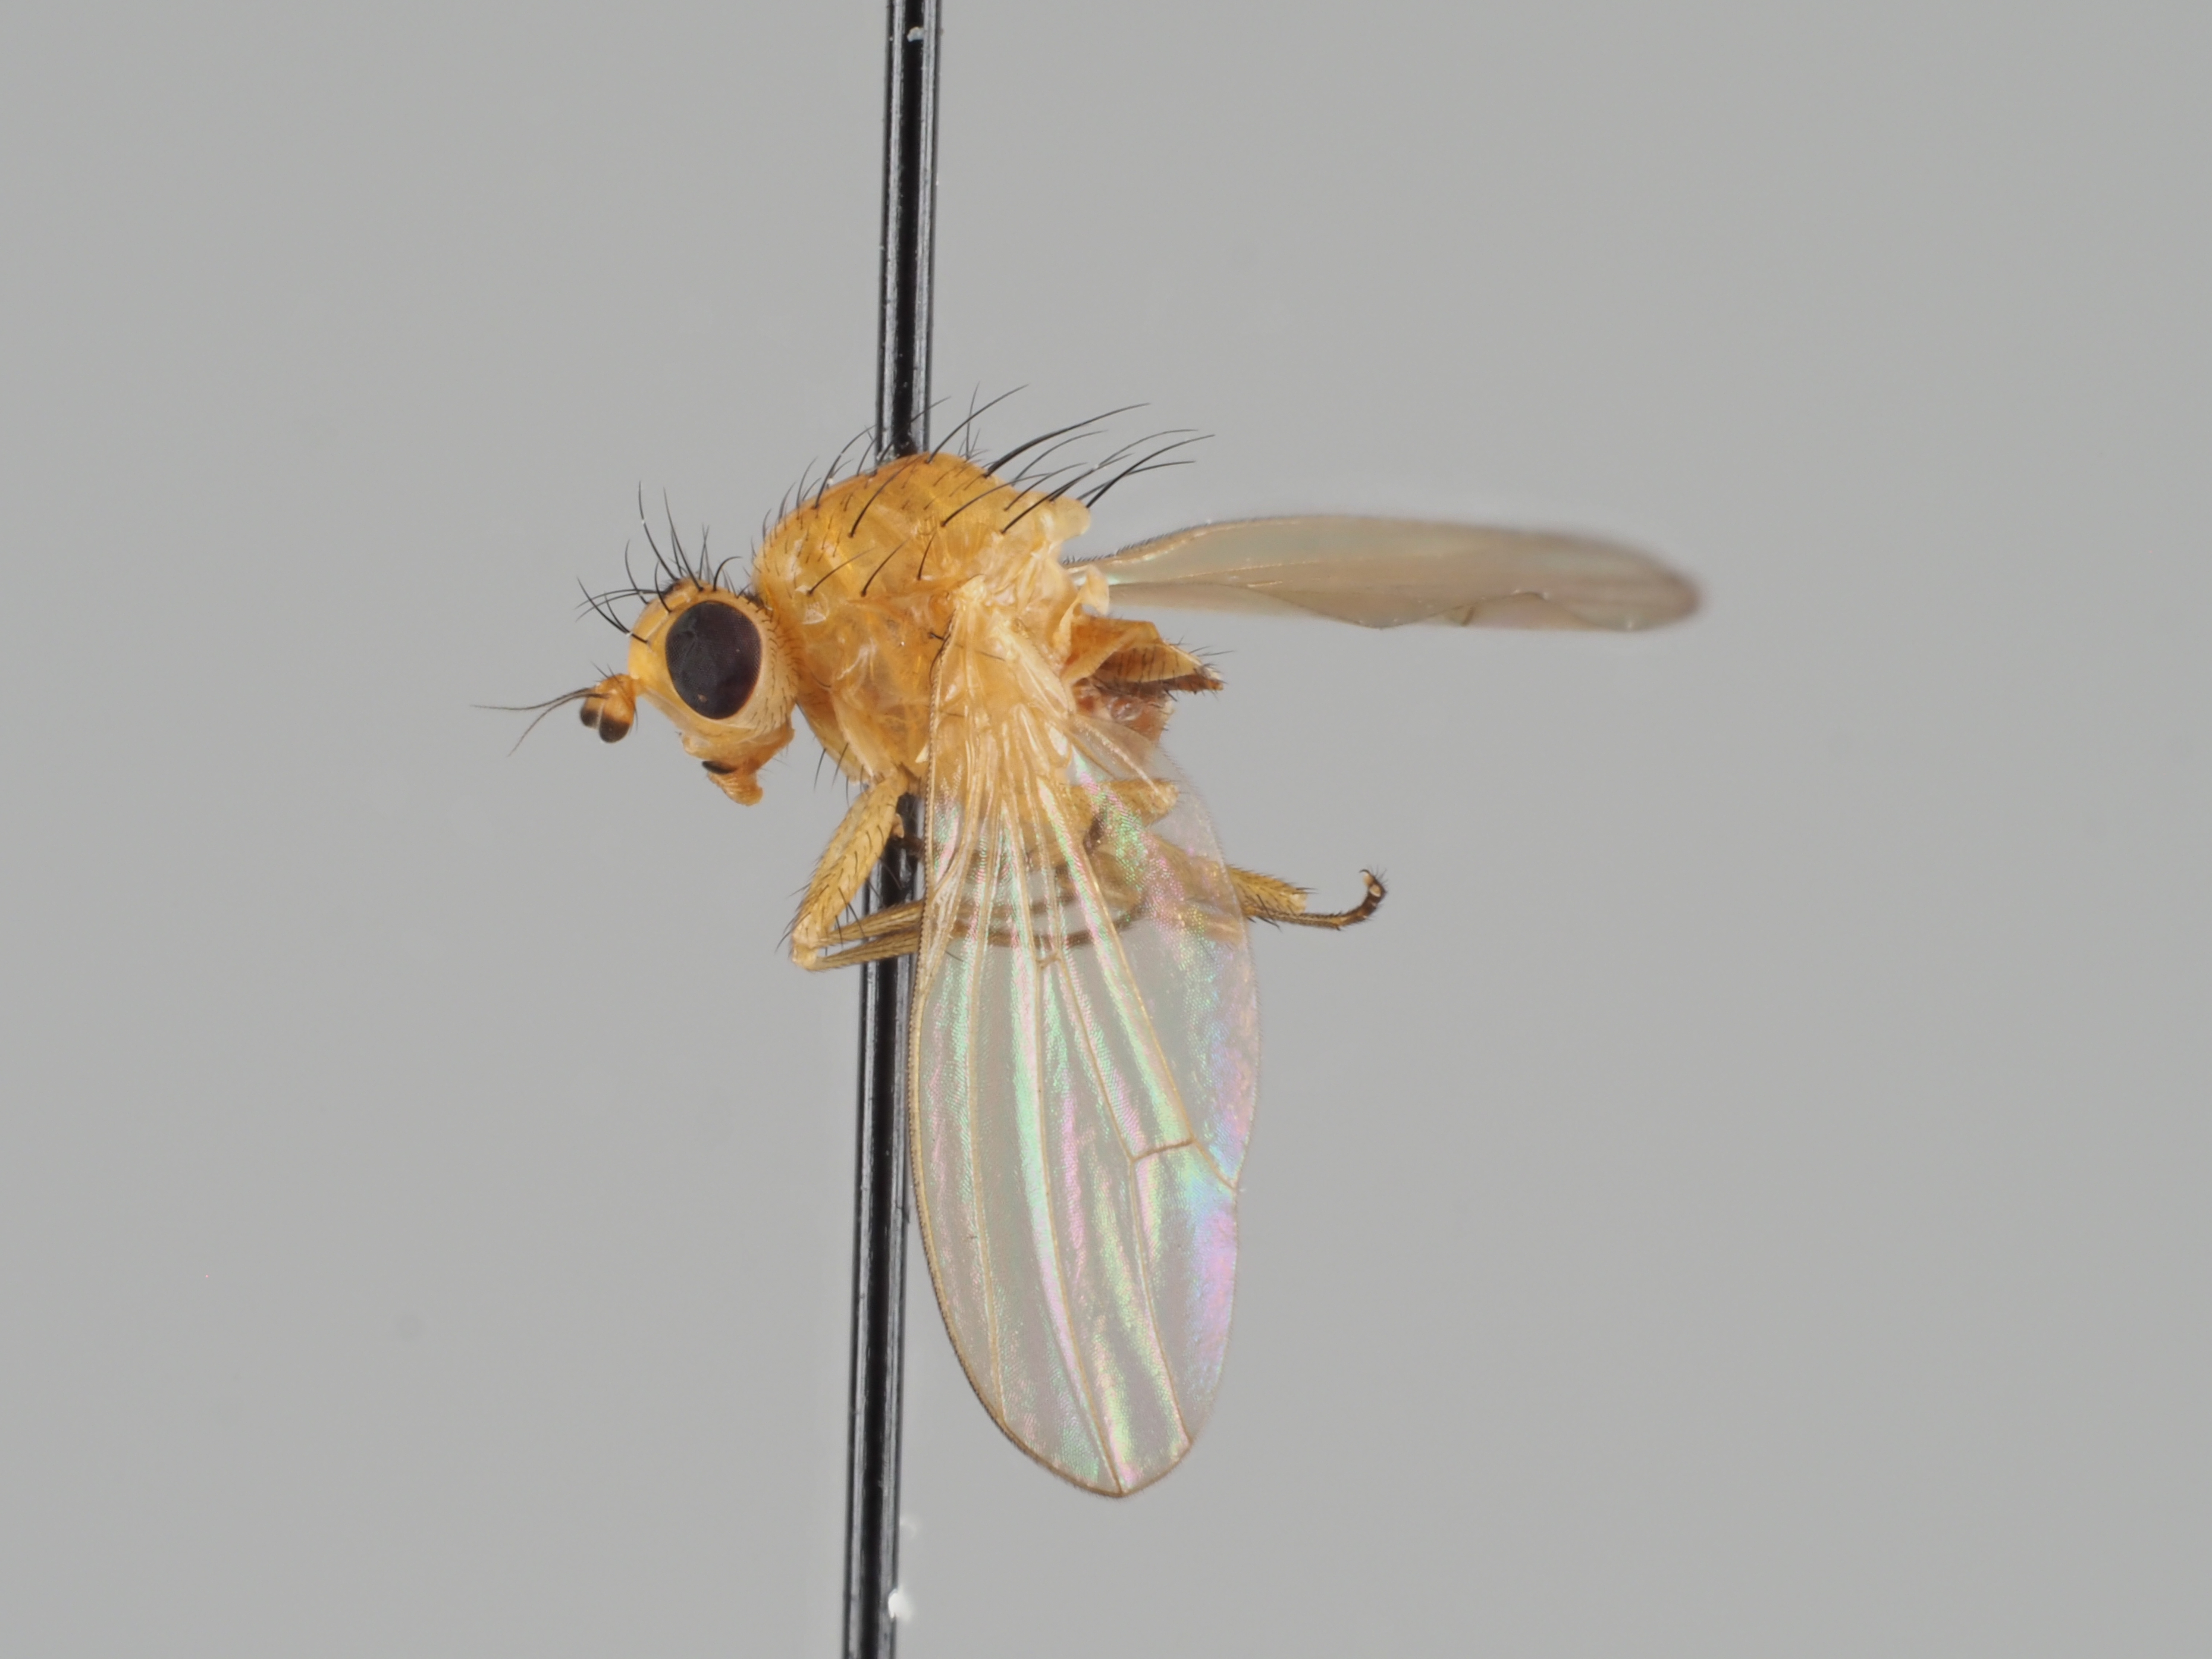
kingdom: Animalia
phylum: Arthropoda
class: Insecta
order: Diptera
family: Lauxaniidae
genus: Meiosimyza
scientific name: Meiosimyza mihalyii
